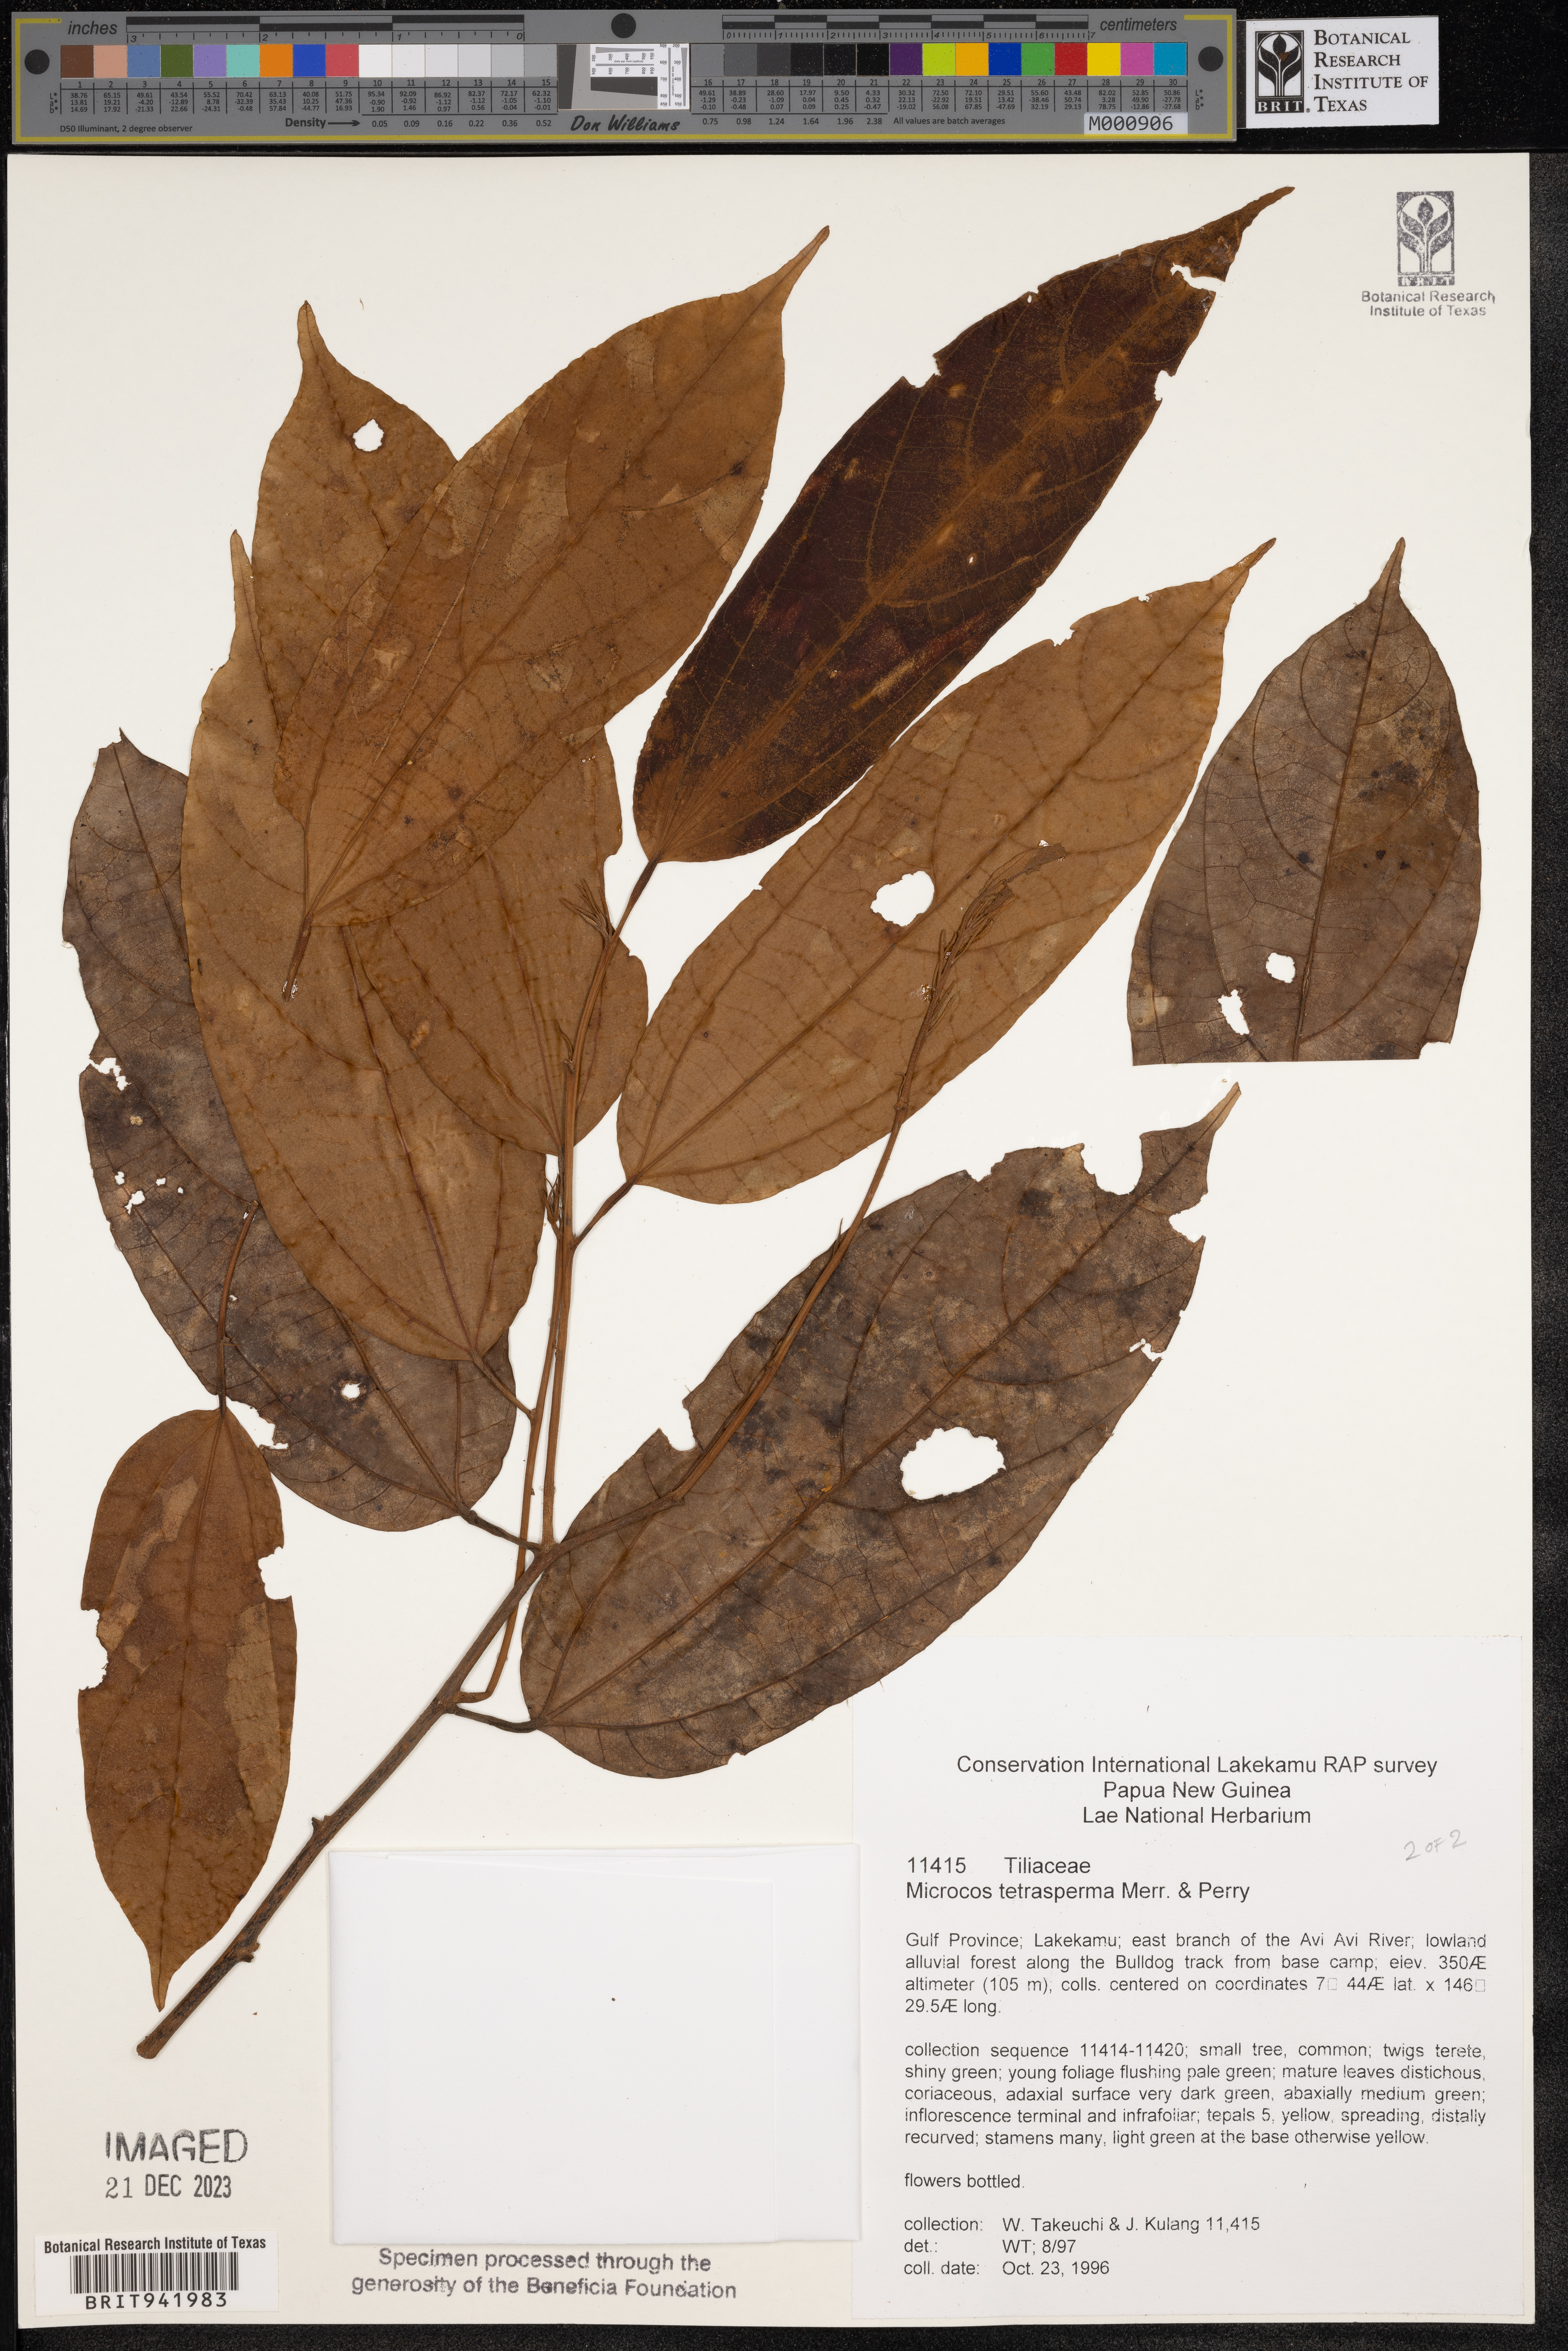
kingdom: Plantae
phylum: Tracheophyta
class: Magnoliopsida
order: Malvales
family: Malvaceae
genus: Microcos
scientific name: Microcos
